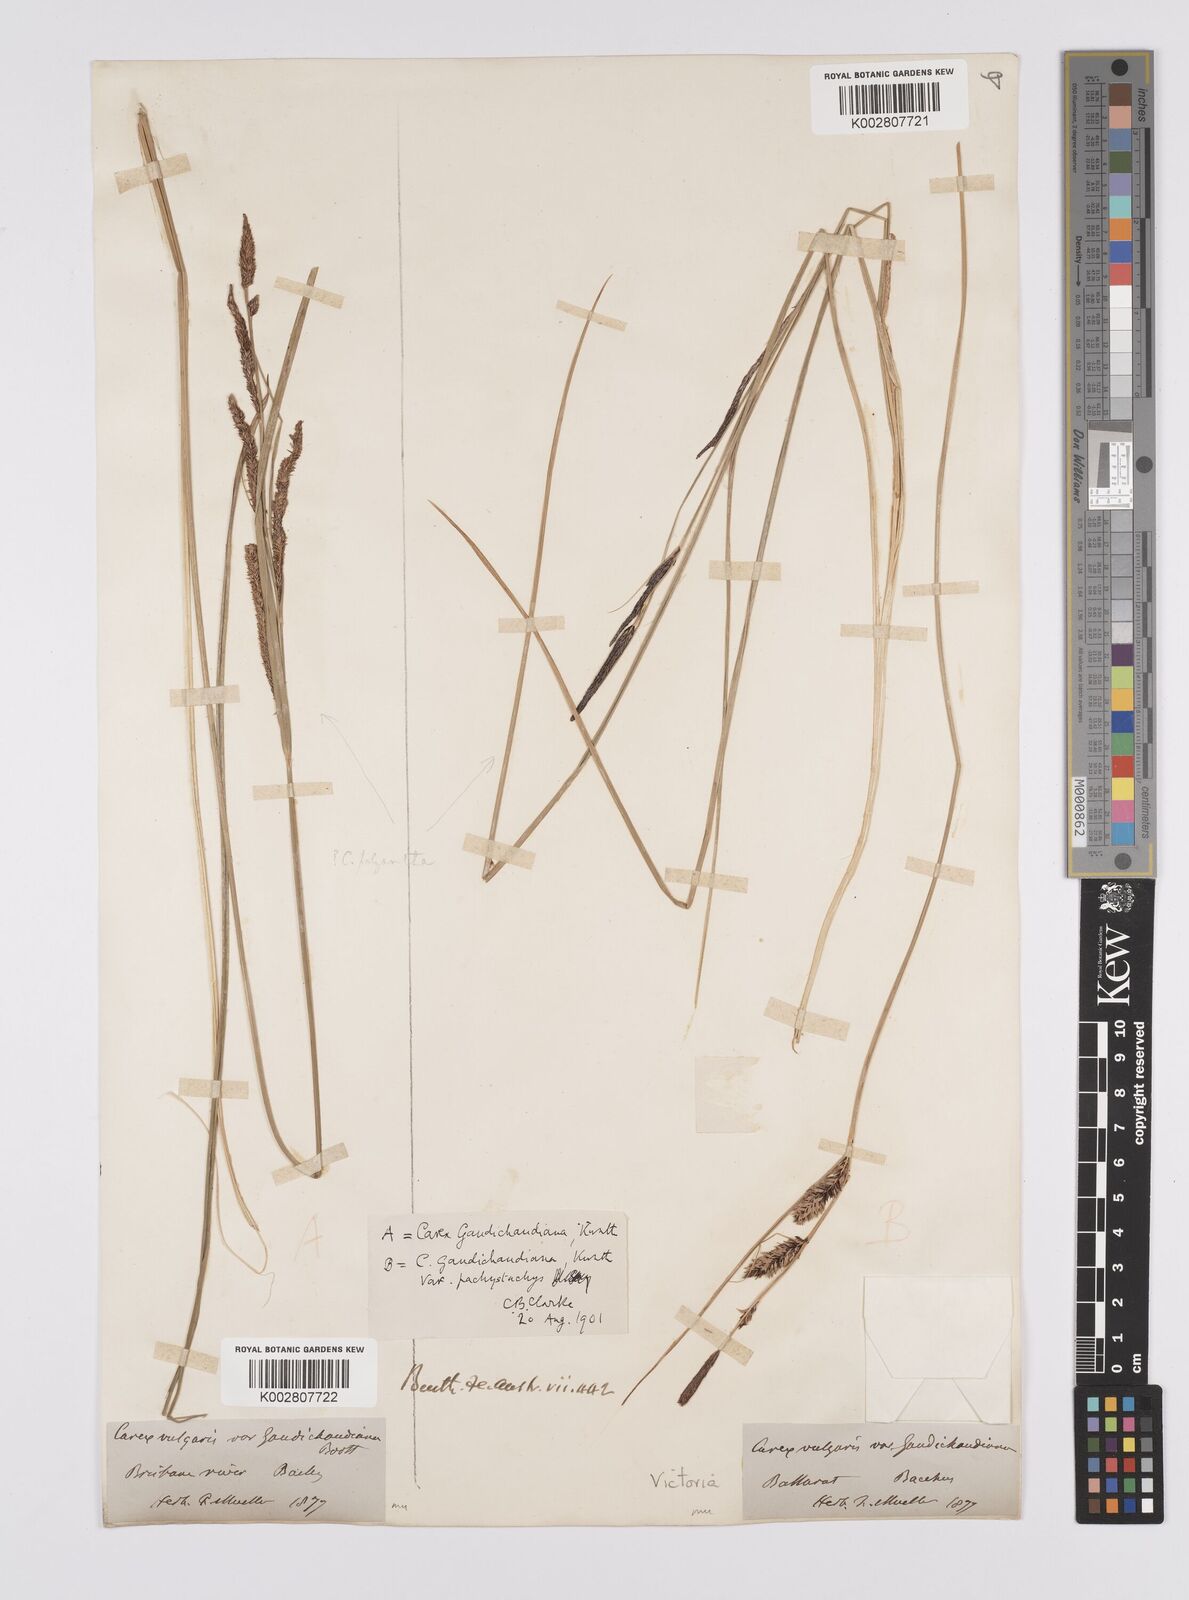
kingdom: Plantae
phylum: Tracheophyta
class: Liliopsida
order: Poales
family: Cyperaceae
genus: Carex
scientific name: Carex gaudichaudiana
